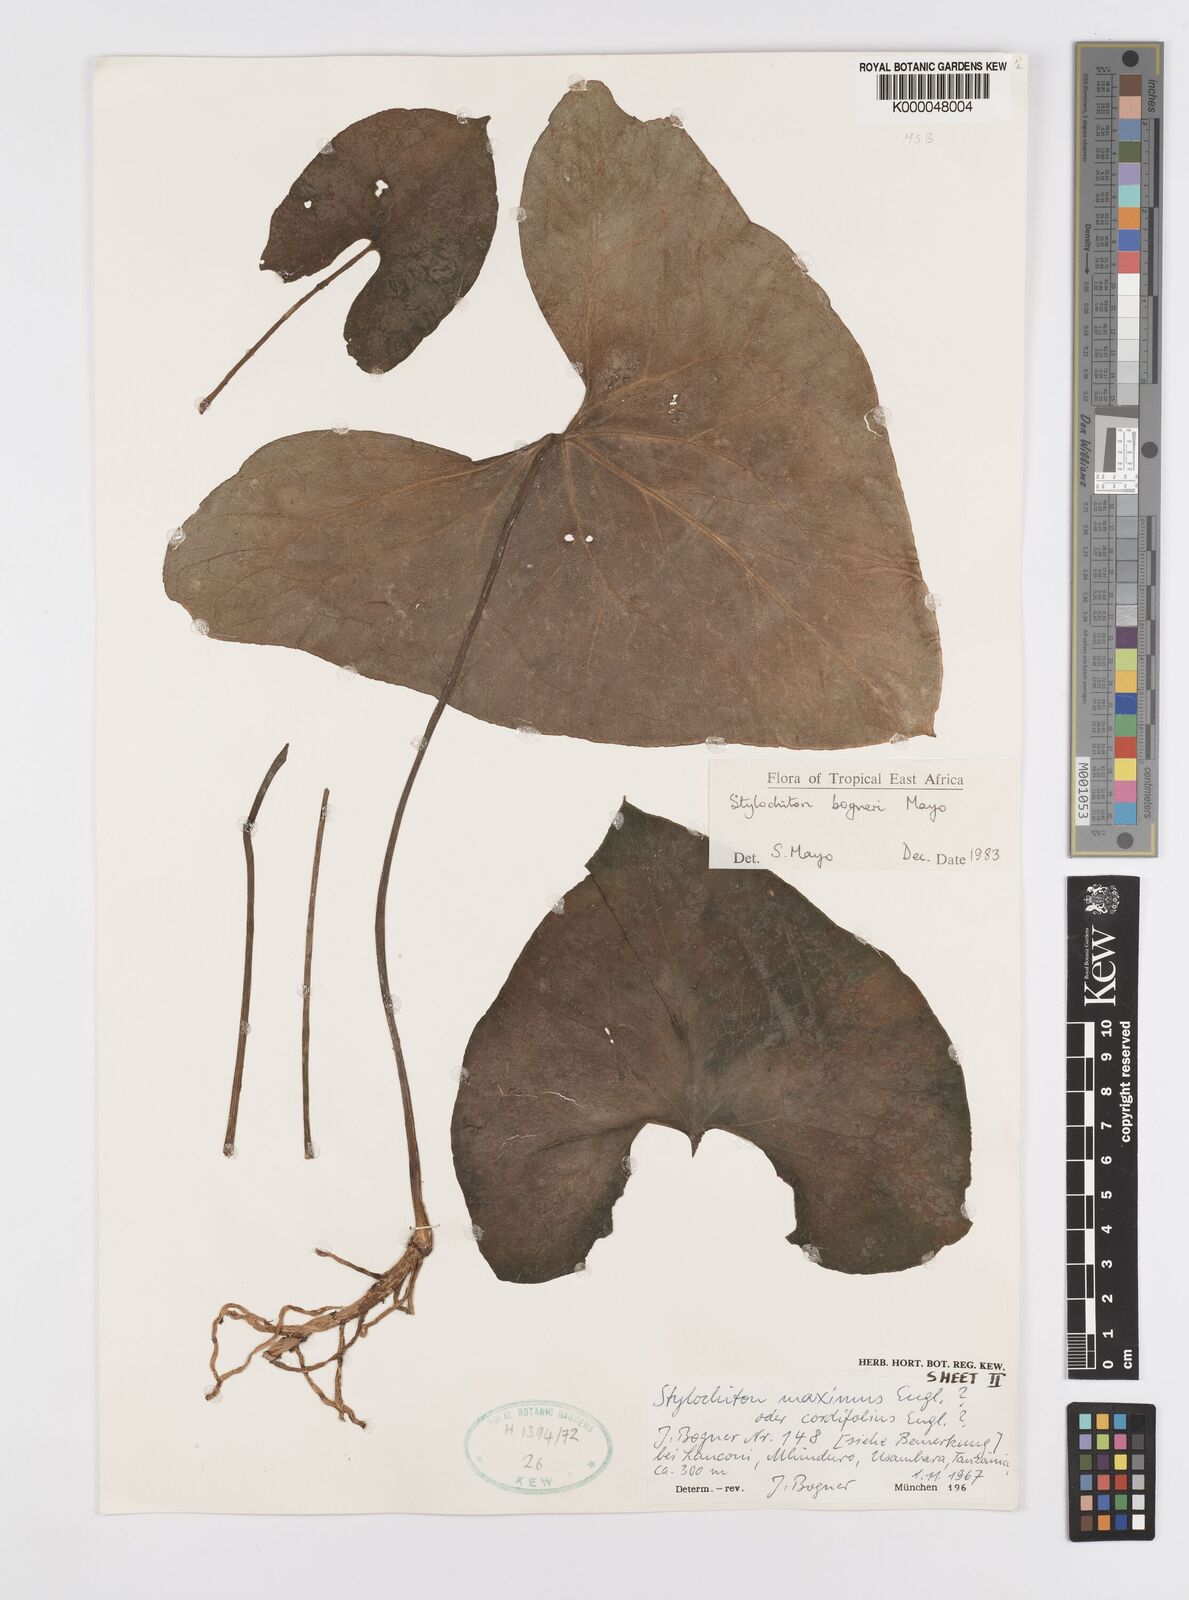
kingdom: Plantae
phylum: Tracheophyta
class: Liliopsida
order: Alismatales
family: Araceae
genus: Stylochaeton
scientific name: Stylochaeton bogneri
